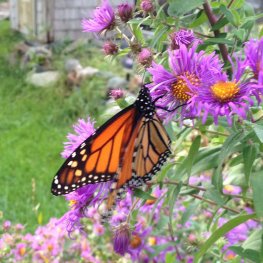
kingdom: Animalia
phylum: Arthropoda
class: Insecta
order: Lepidoptera
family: Nymphalidae
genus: Danaus
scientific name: Danaus plexippus
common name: Monarch
